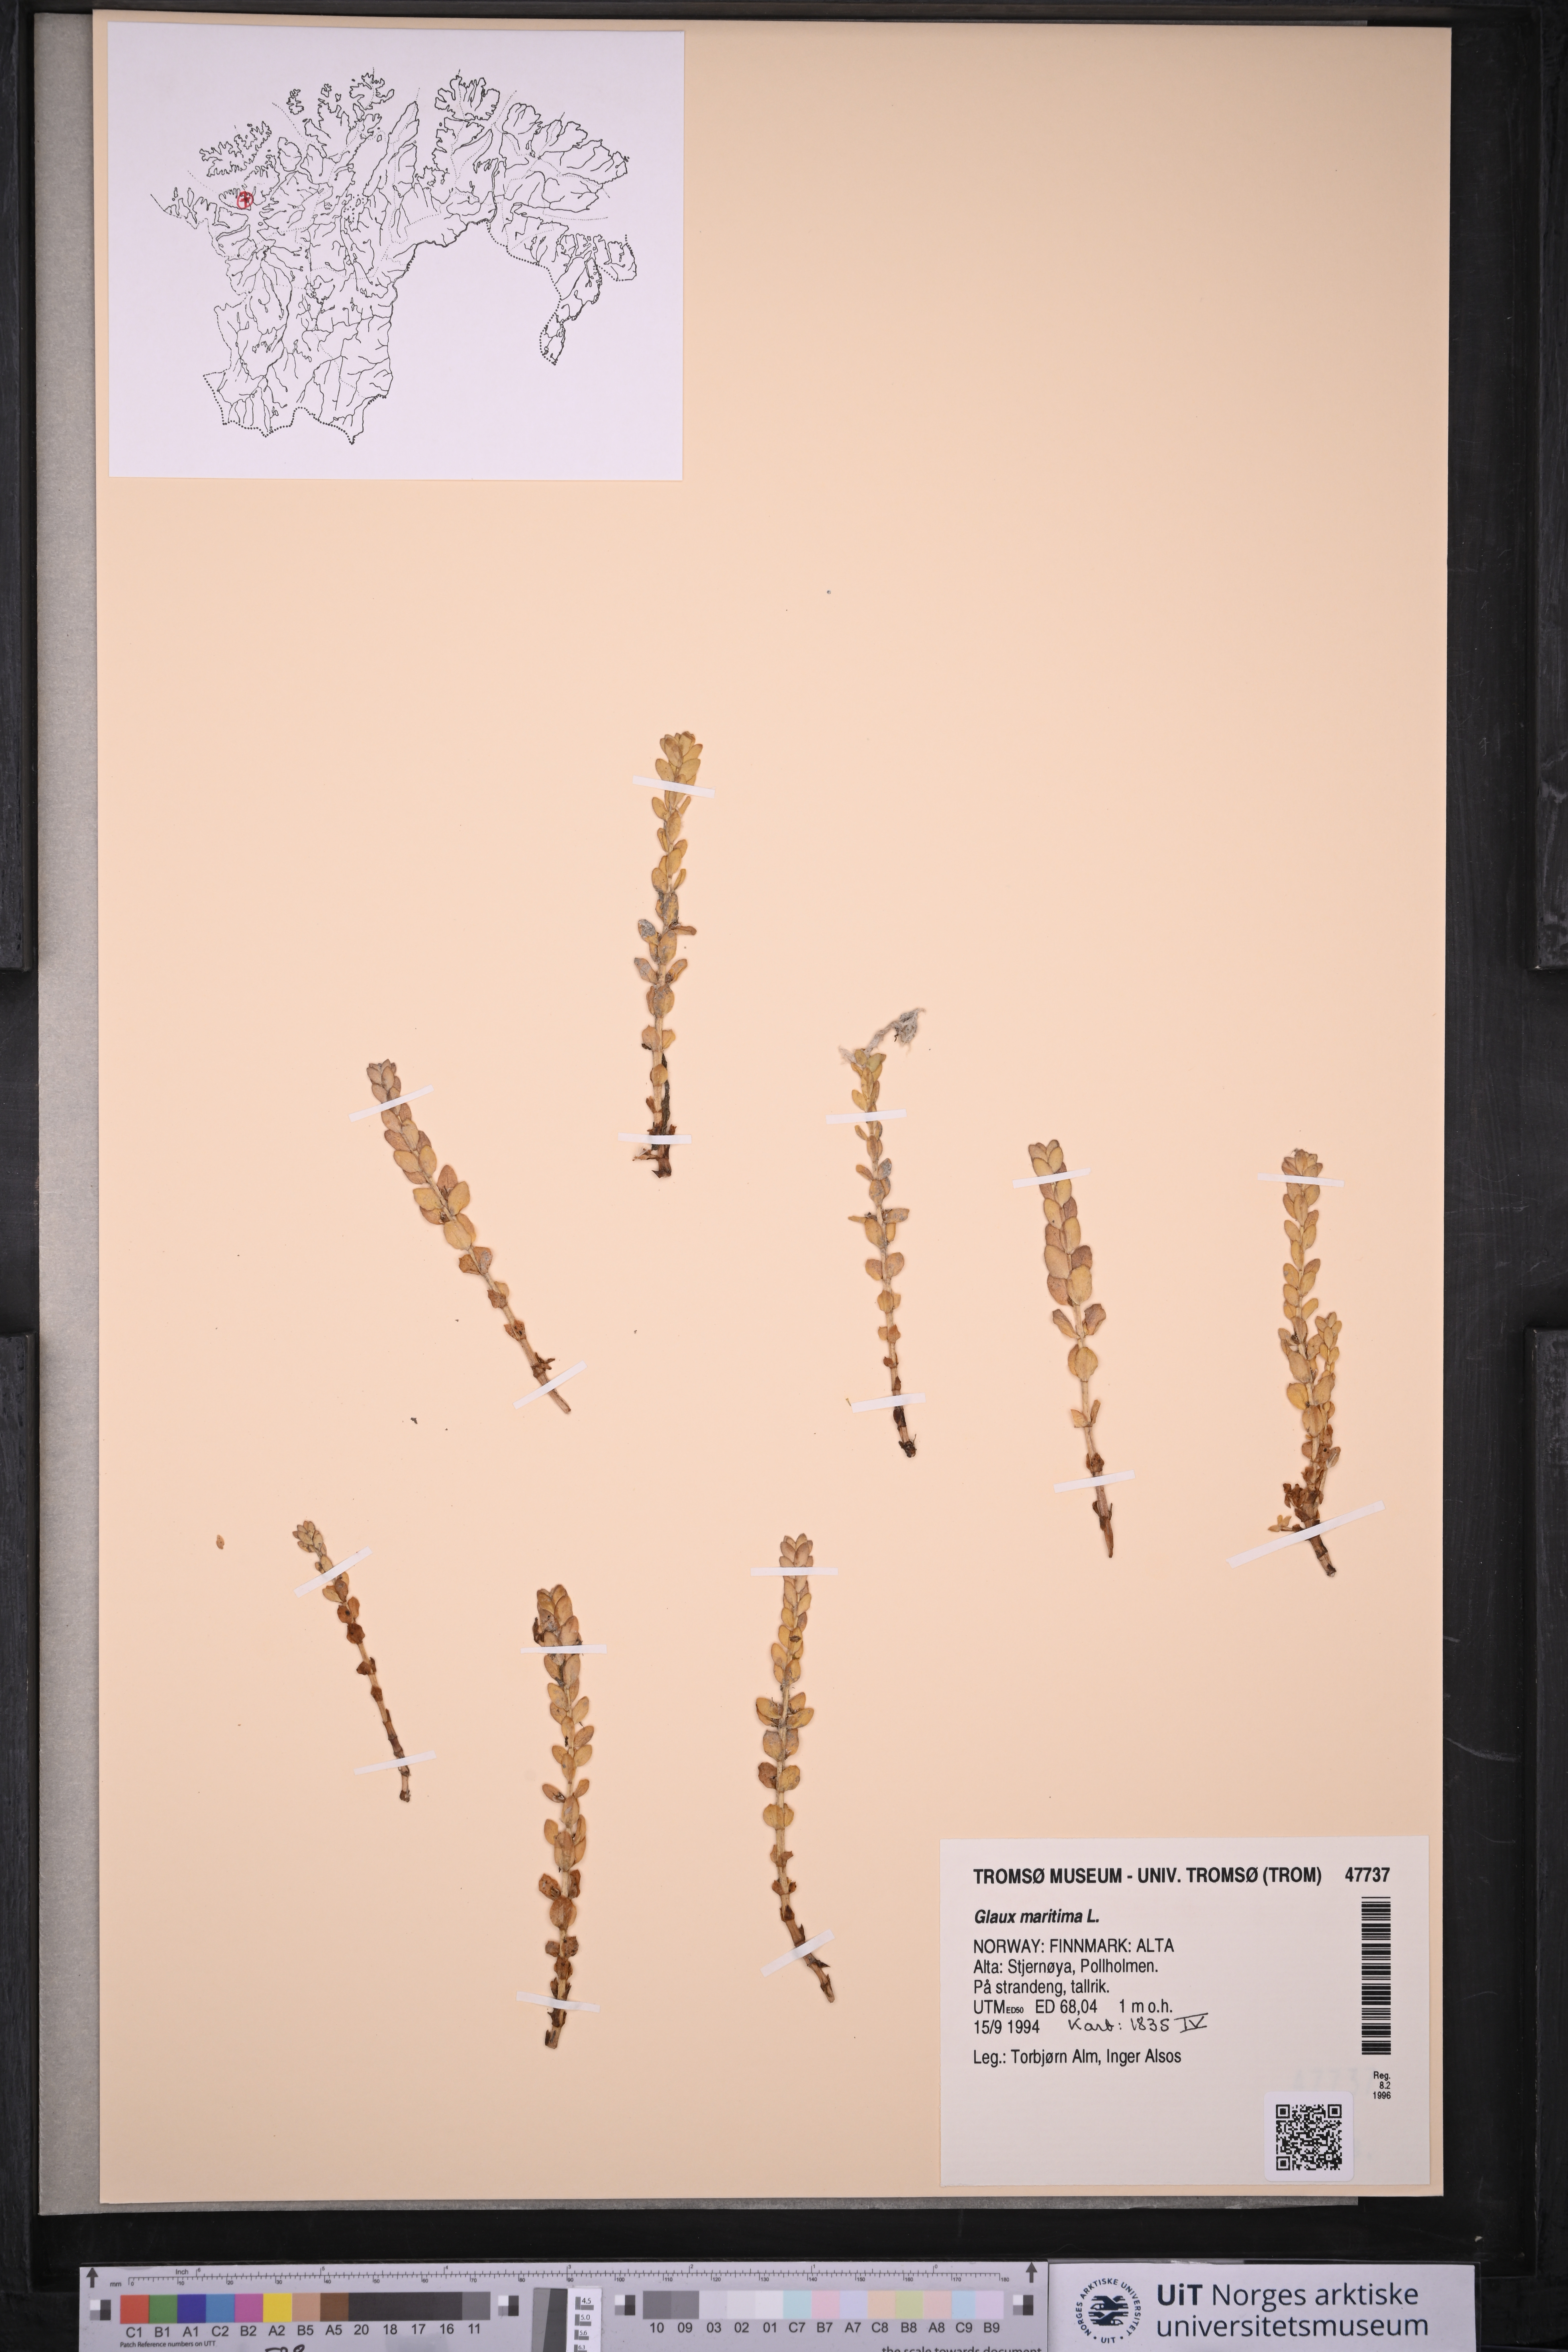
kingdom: Plantae
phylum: Tracheophyta
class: Magnoliopsida
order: Ericales
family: Primulaceae
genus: Lysimachia
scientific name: Lysimachia maritima
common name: Sea milkwort
